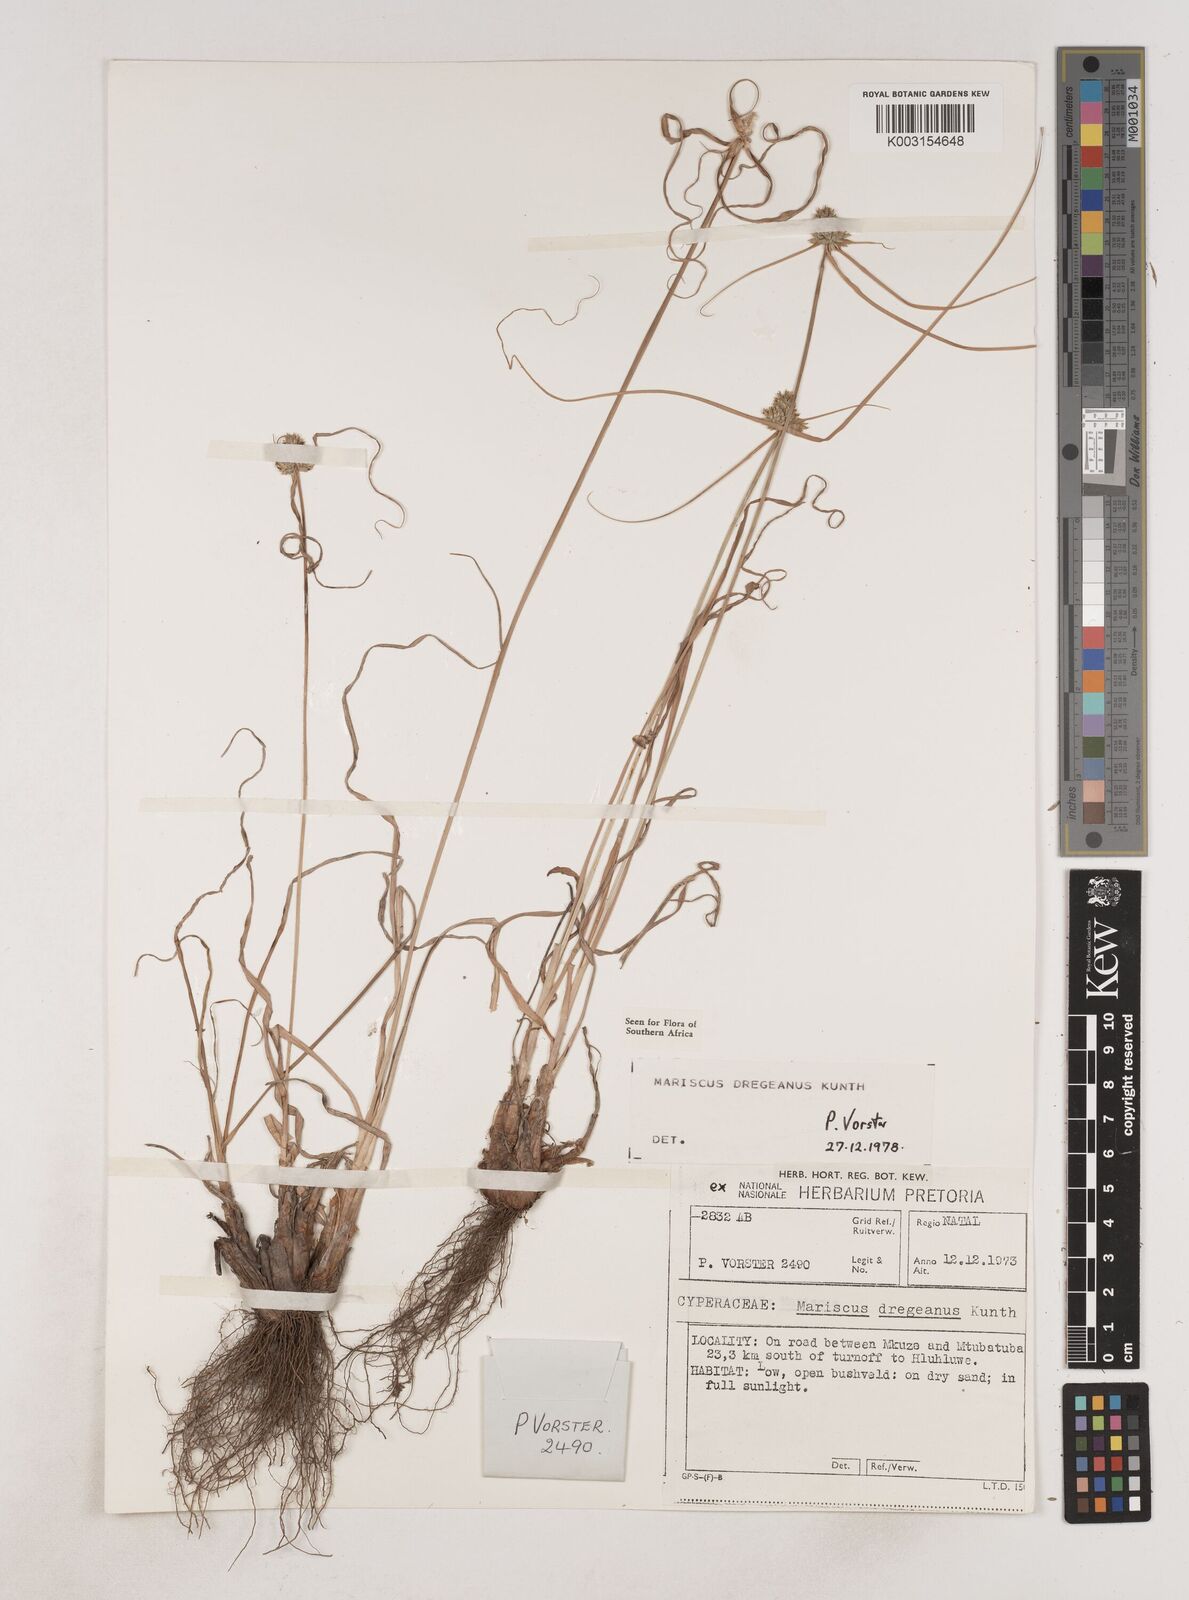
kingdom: Plantae
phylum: Tracheophyta
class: Liliopsida
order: Poales
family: Cyperaceae
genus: Cyperus
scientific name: Cyperus dubius
